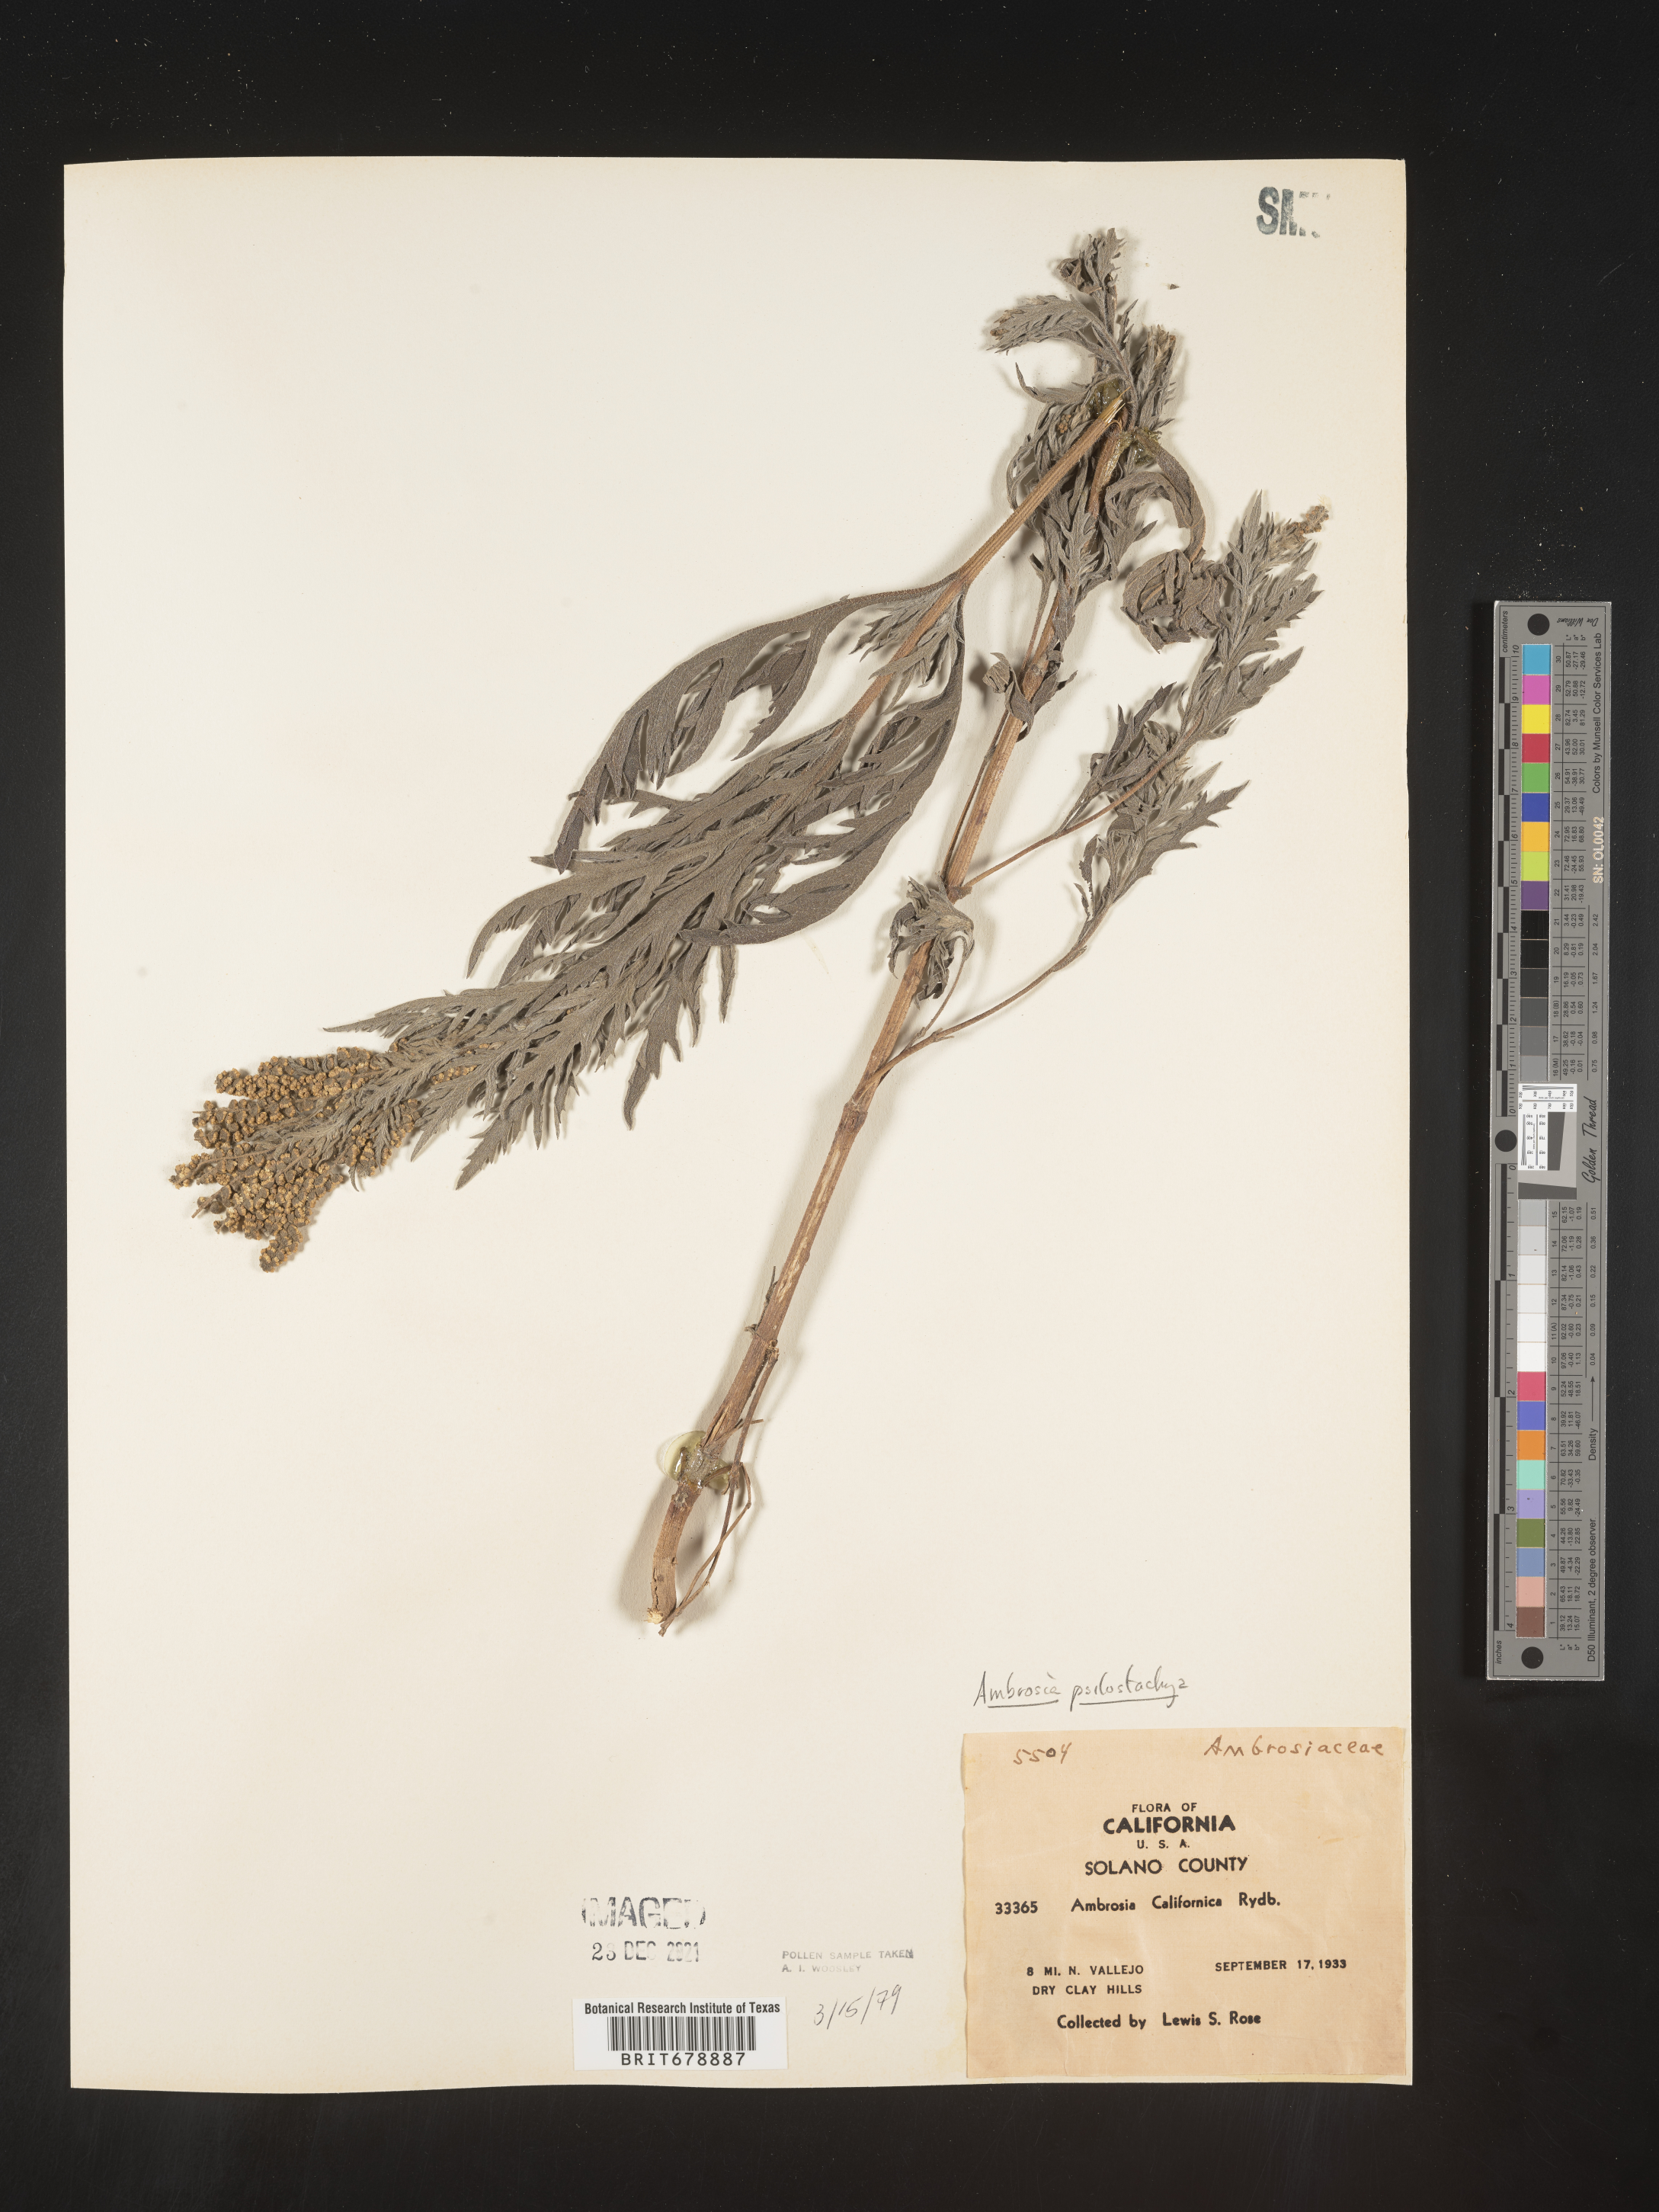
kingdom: Plantae
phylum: Tracheophyta
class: Magnoliopsida
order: Asterales
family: Asteraceae
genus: Ambrosia
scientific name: Ambrosia psilostachya
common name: Perennial ragweed
